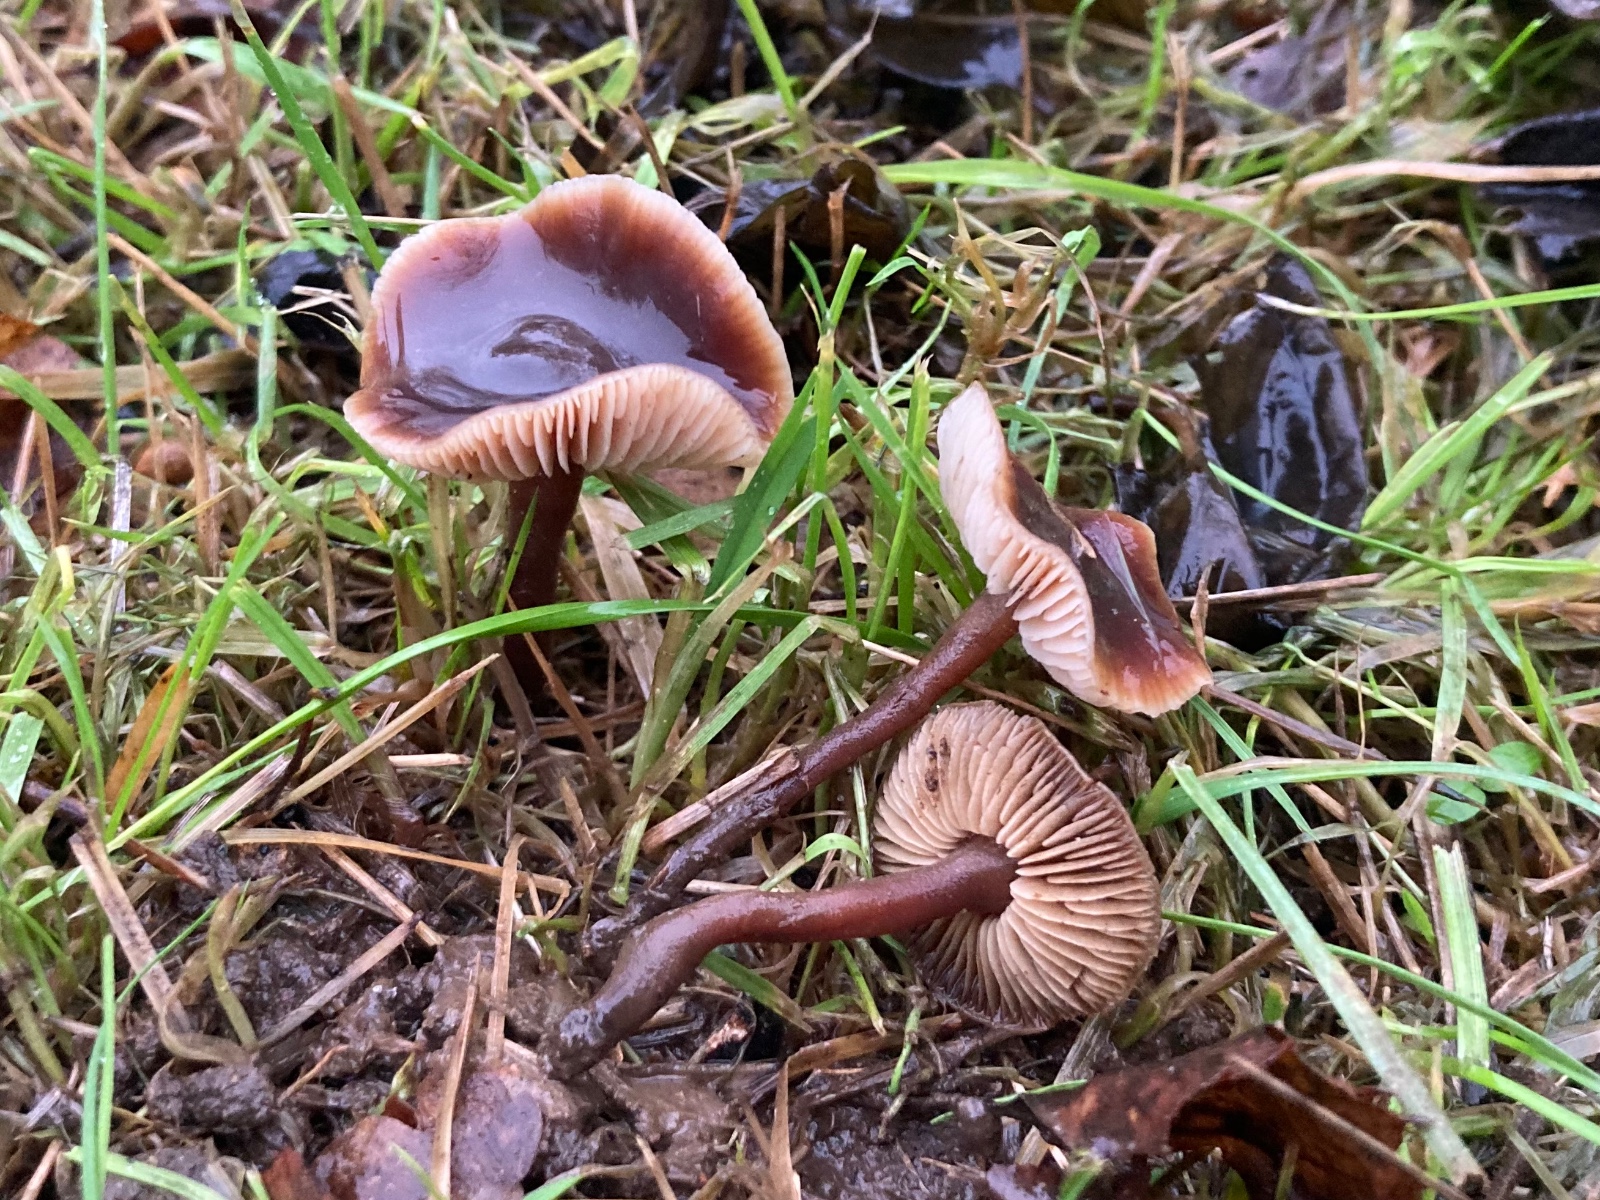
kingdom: Fungi
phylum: Basidiomycota
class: Agaricomycetes
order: Agaricales
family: Macrocystidiaceae
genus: Macrocystidia
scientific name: Macrocystidia cucumis
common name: agurkehat
